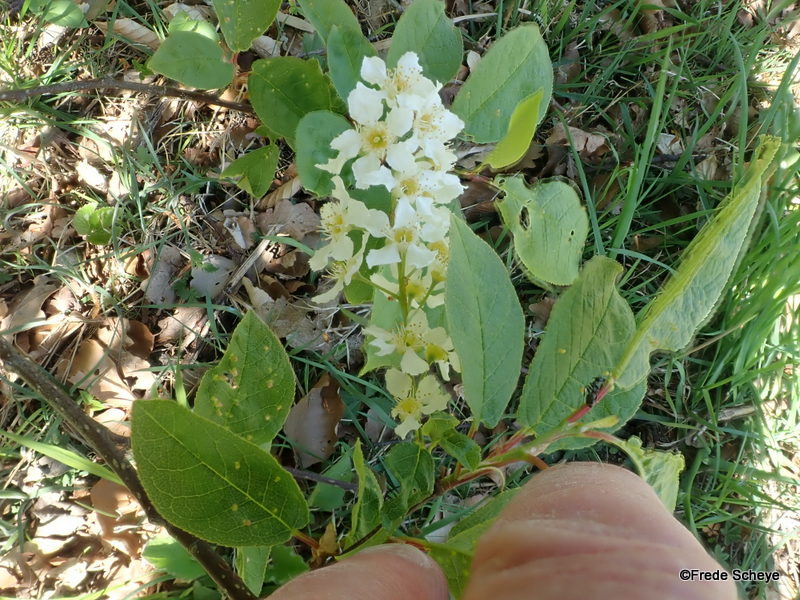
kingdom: Plantae
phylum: Tracheophyta
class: Magnoliopsida
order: Rosales
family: Rosaceae
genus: Prunus
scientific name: Prunus padus
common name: Almindelig hæg
